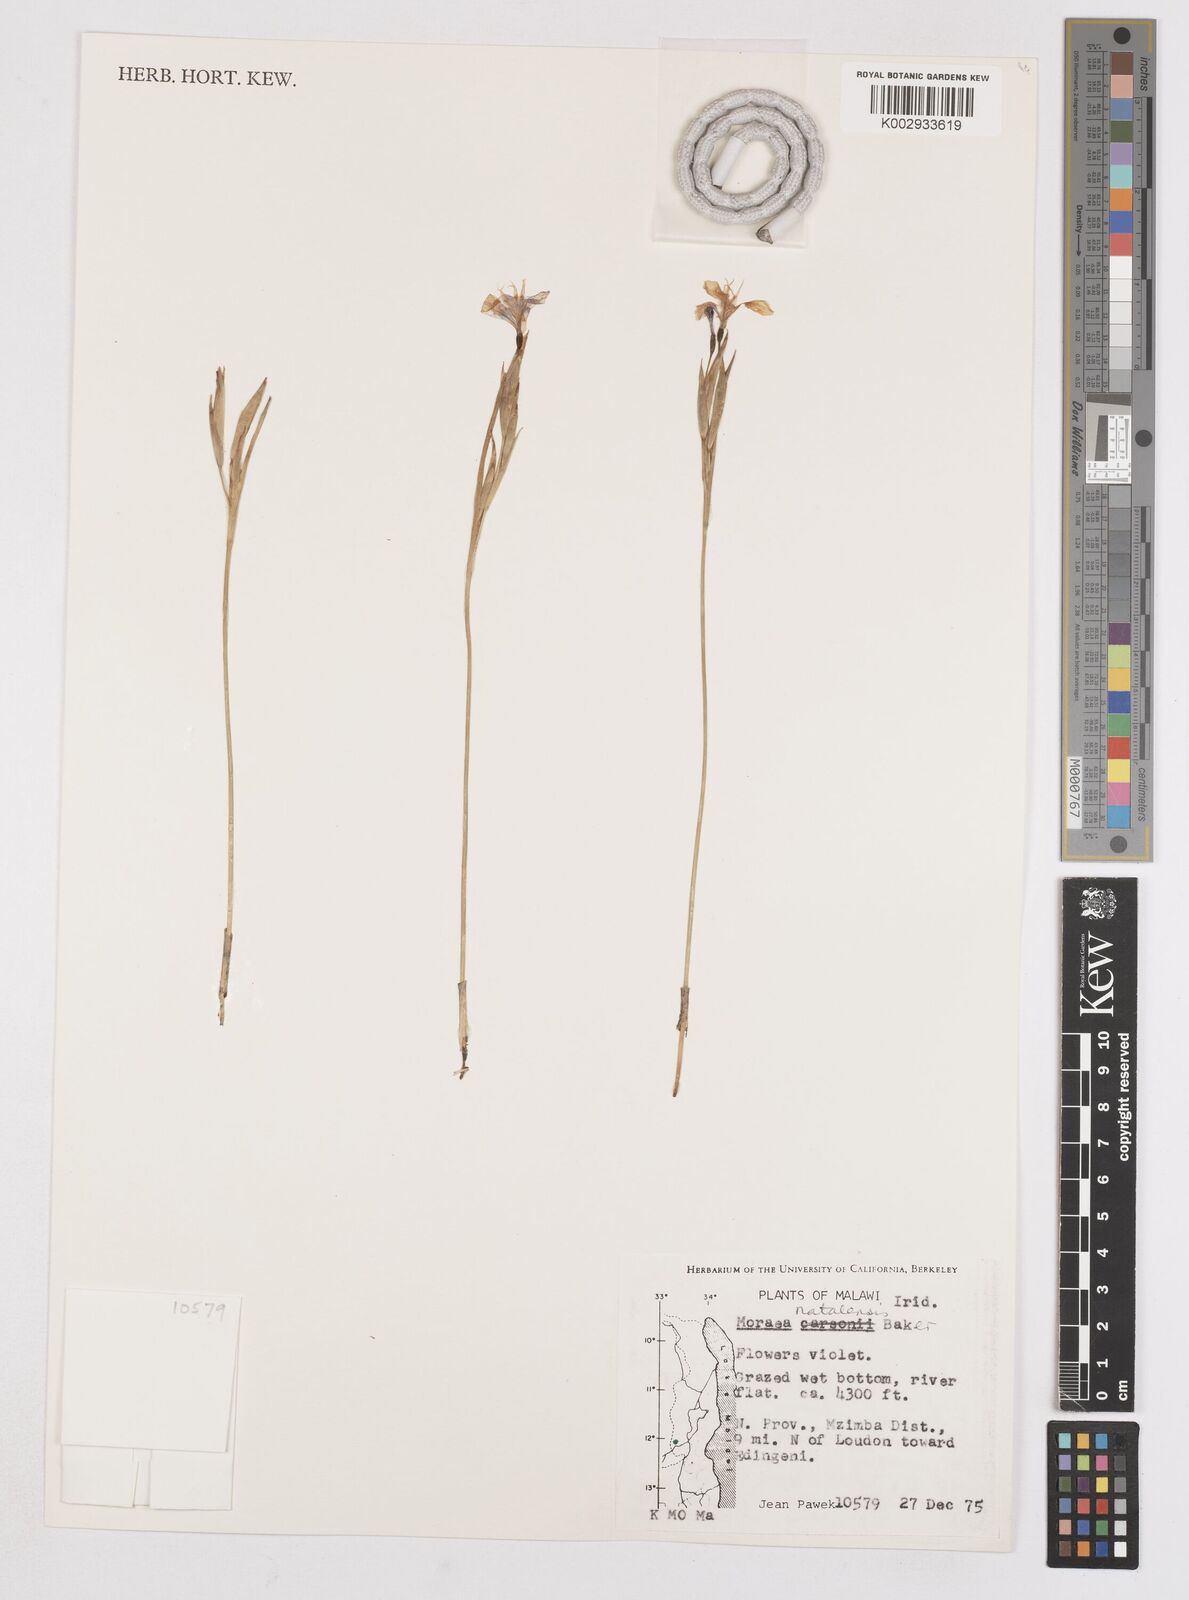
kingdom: Plantae
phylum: Tracheophyta
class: Liliopsida
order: Asparagales
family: Iridaceae
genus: Moraea
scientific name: Moraea natalensis
